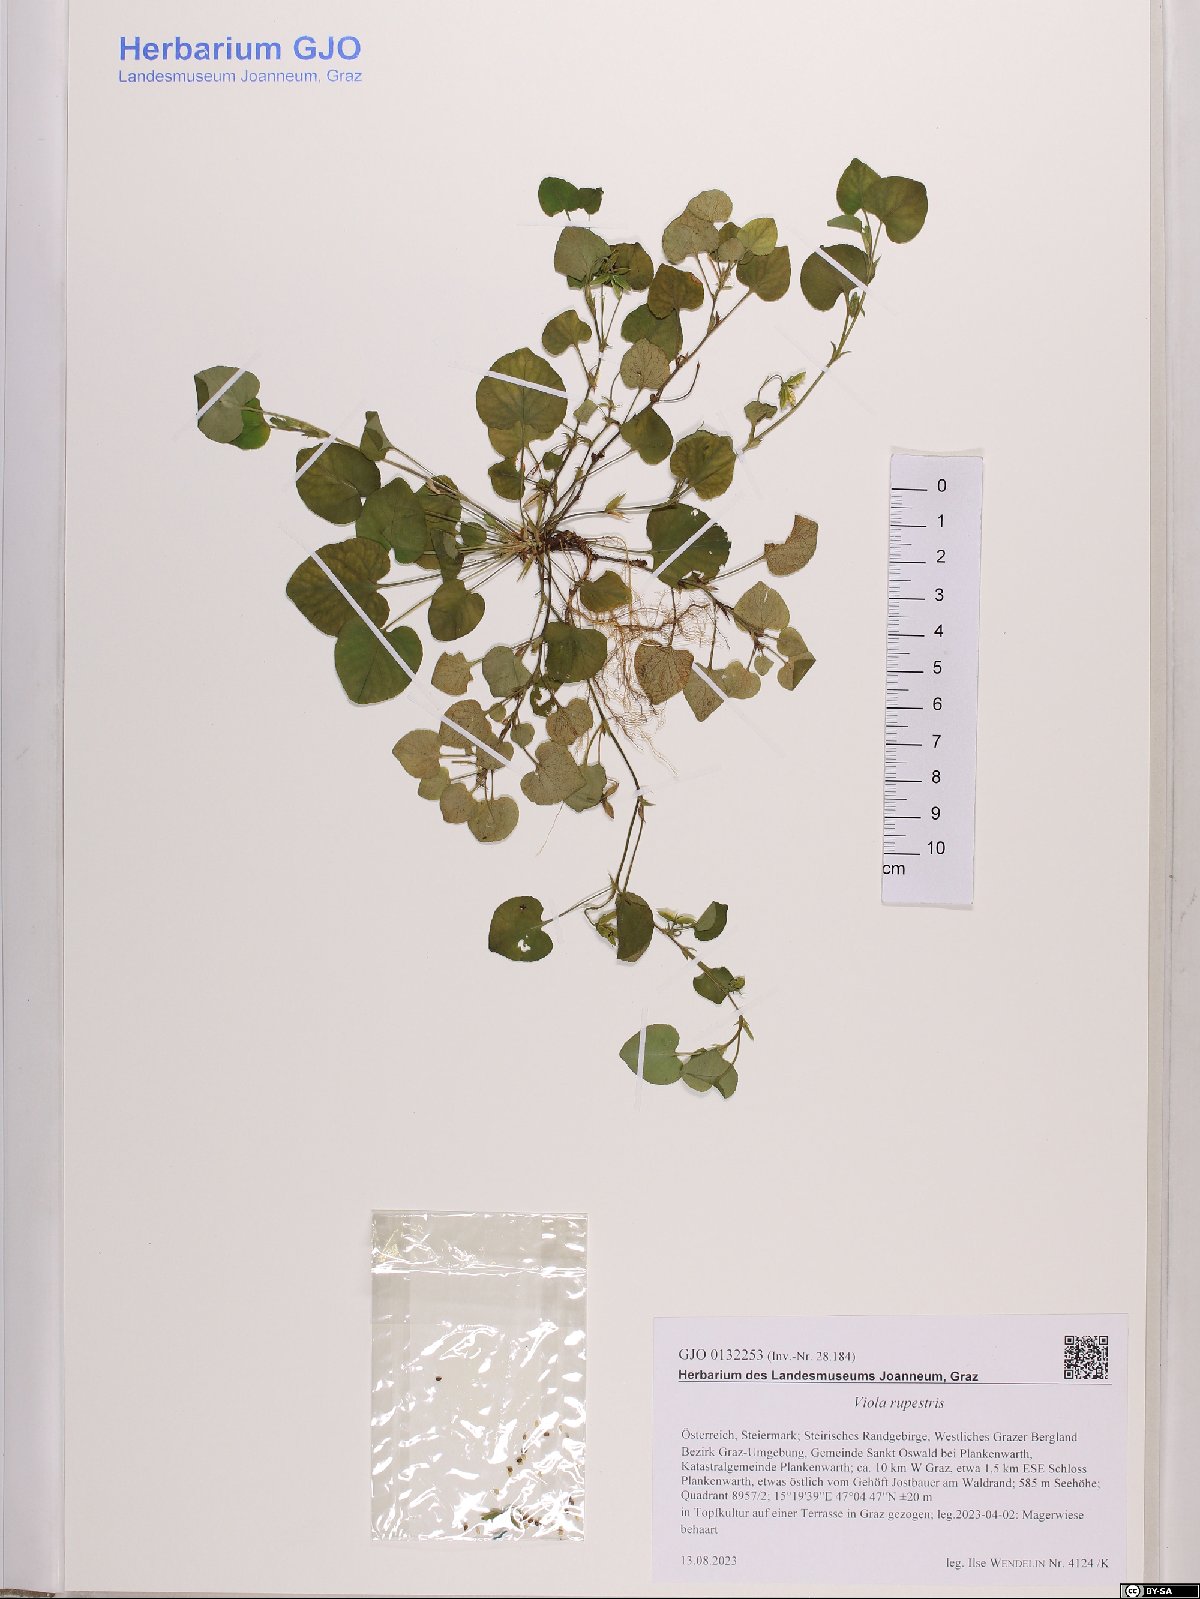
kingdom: Plantae
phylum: Tracheophyta
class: Magnoliopsida
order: Malpighiales
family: Violaceae
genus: Viola
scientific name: Viola rupestris
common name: Teesdale violet
